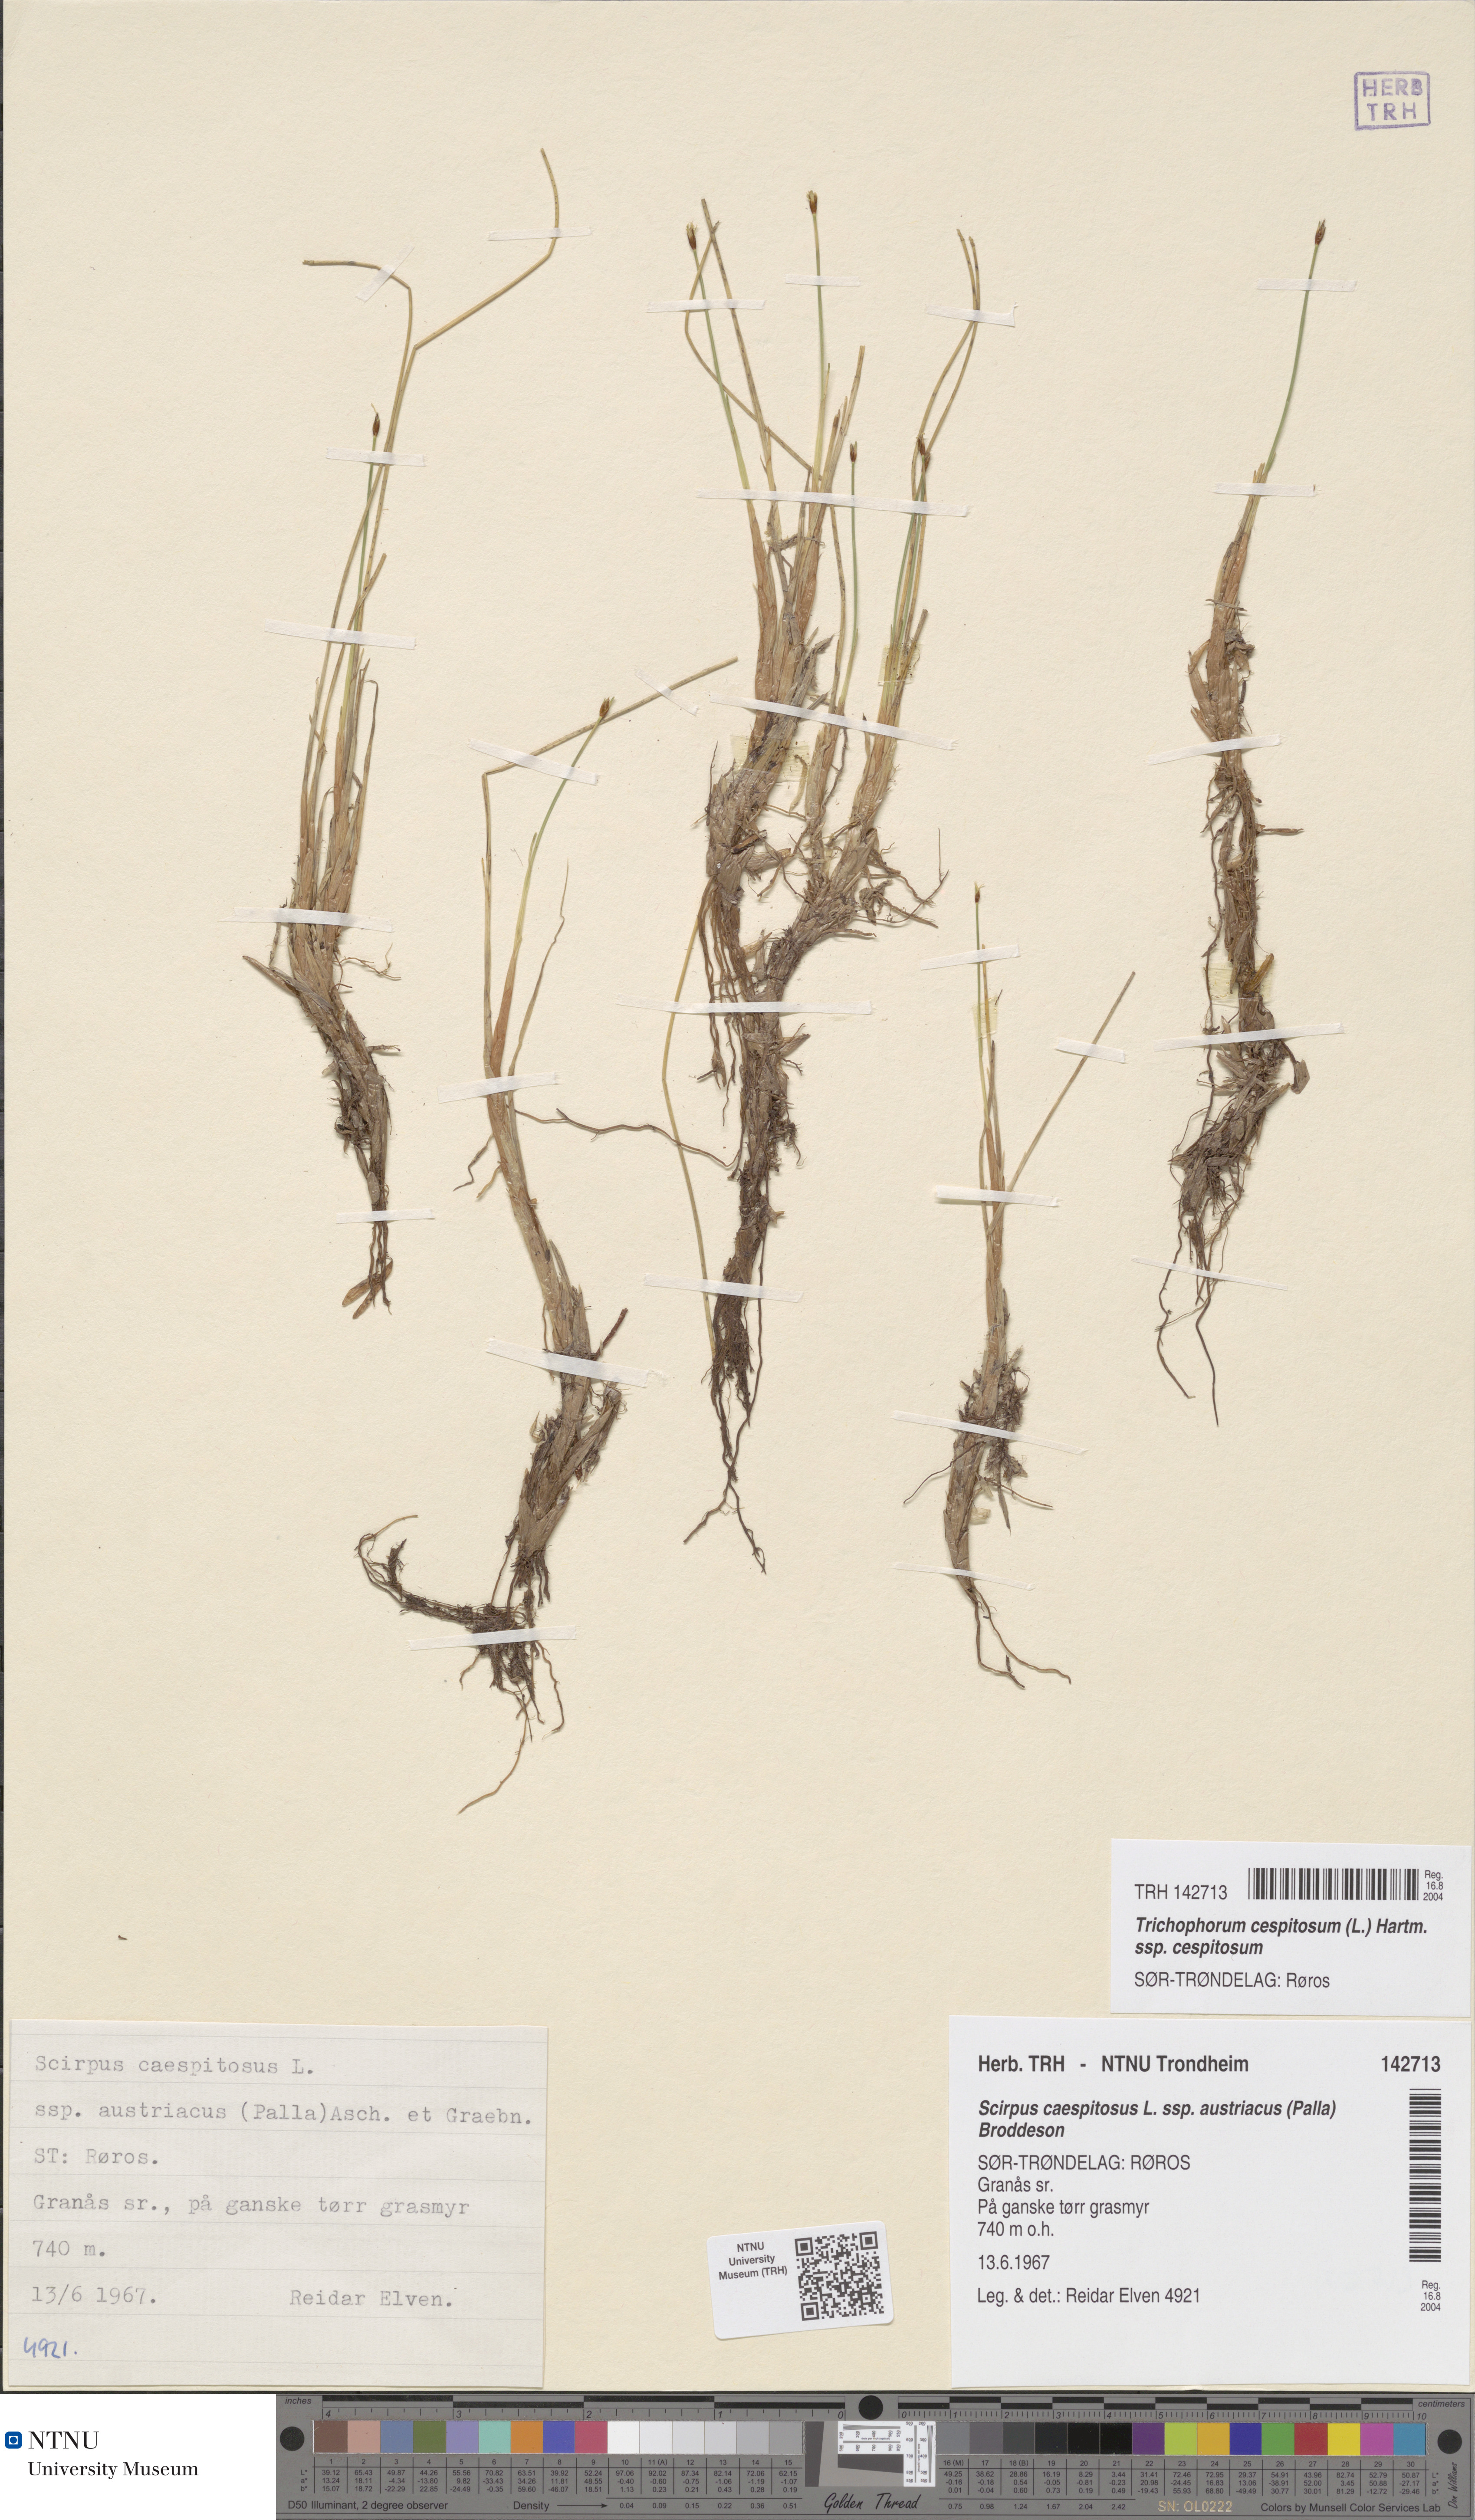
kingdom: Plantae
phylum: Tracheophyta
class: Liliopsida
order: Poales
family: Cyperaceae
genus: Trichophorum
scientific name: Trichophorum cespitosum
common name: Cespitose bulrush
